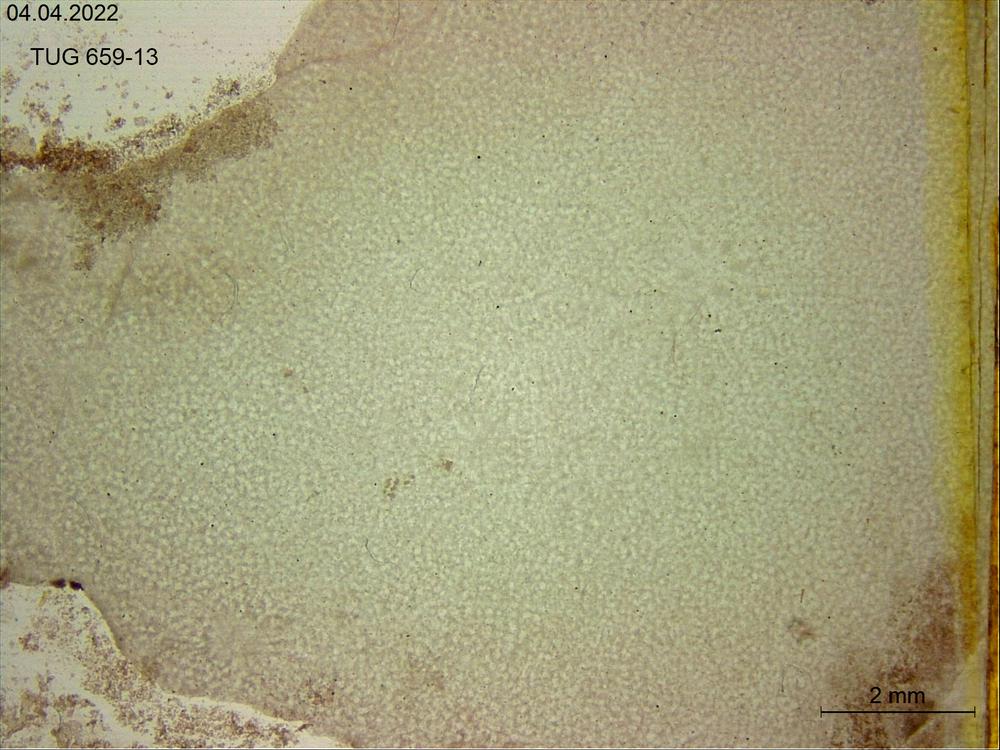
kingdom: Animalia
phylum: Porifera
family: Stromatoporidae
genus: Stromatopora
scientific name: Stromatopora
